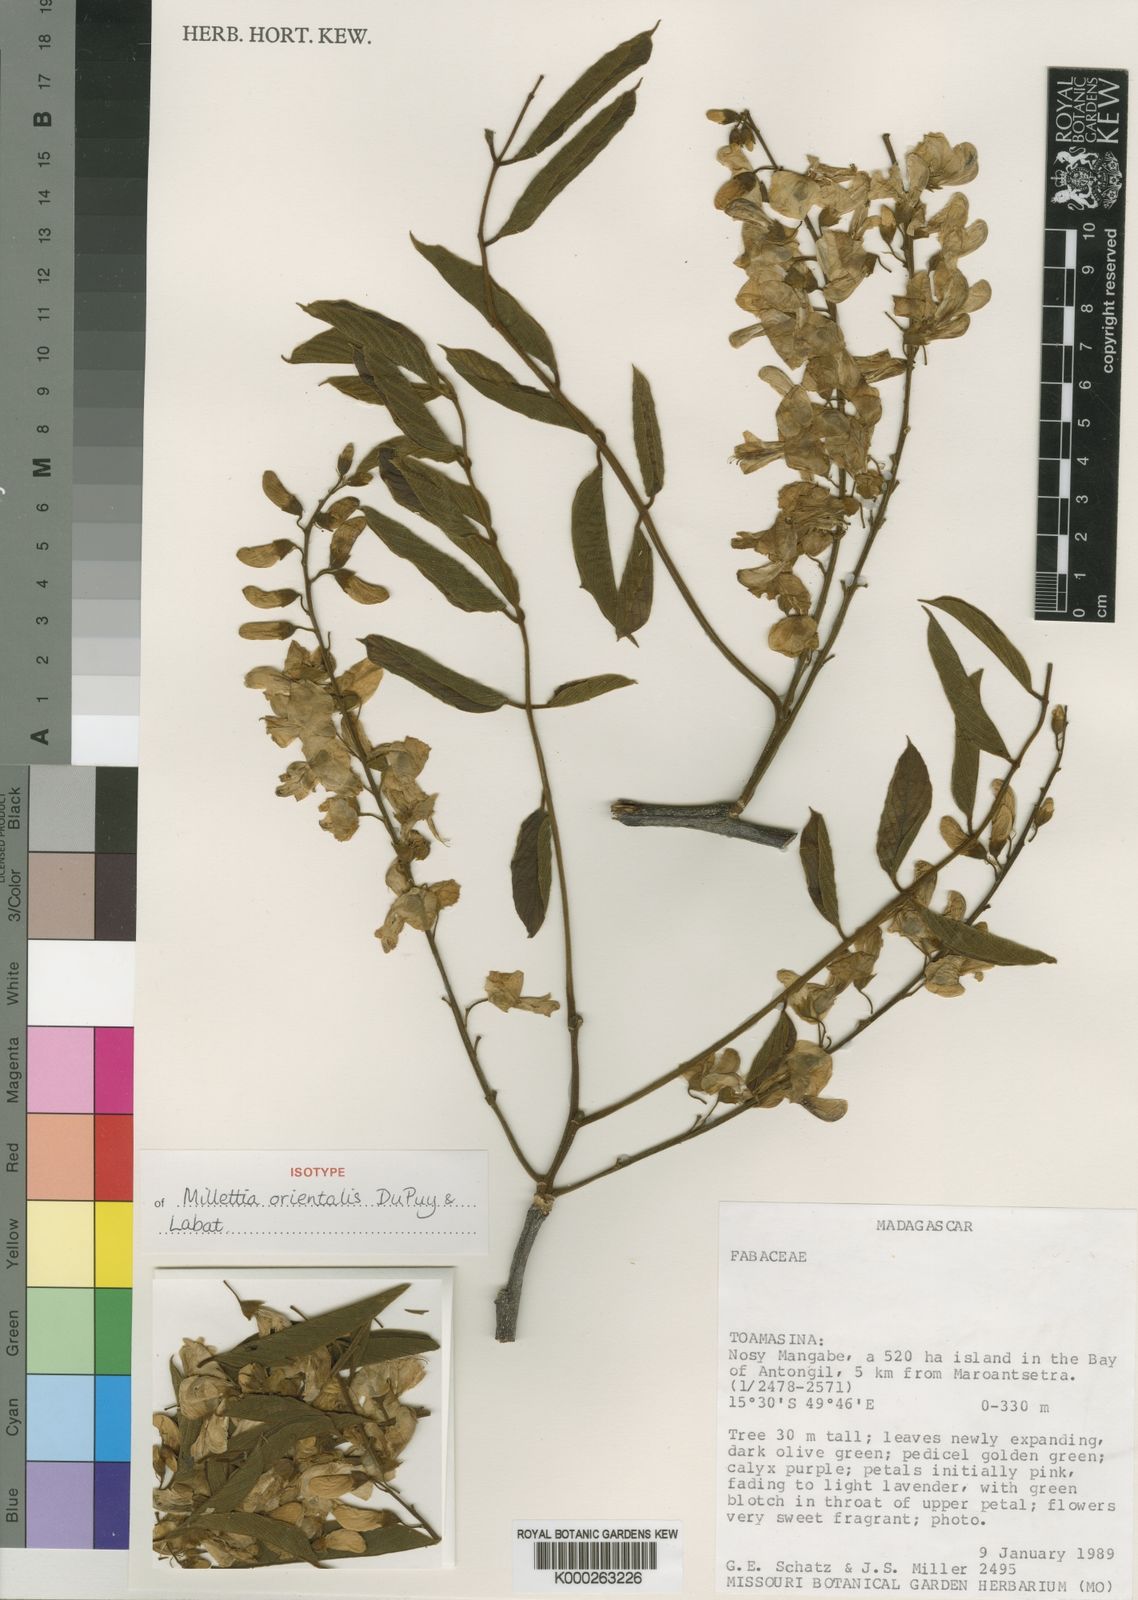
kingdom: Plantae
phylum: Tracheophyta
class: Magnoliopsida
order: Fabales
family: Fabaceae
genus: Millettia
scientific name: Millettia orientalis
